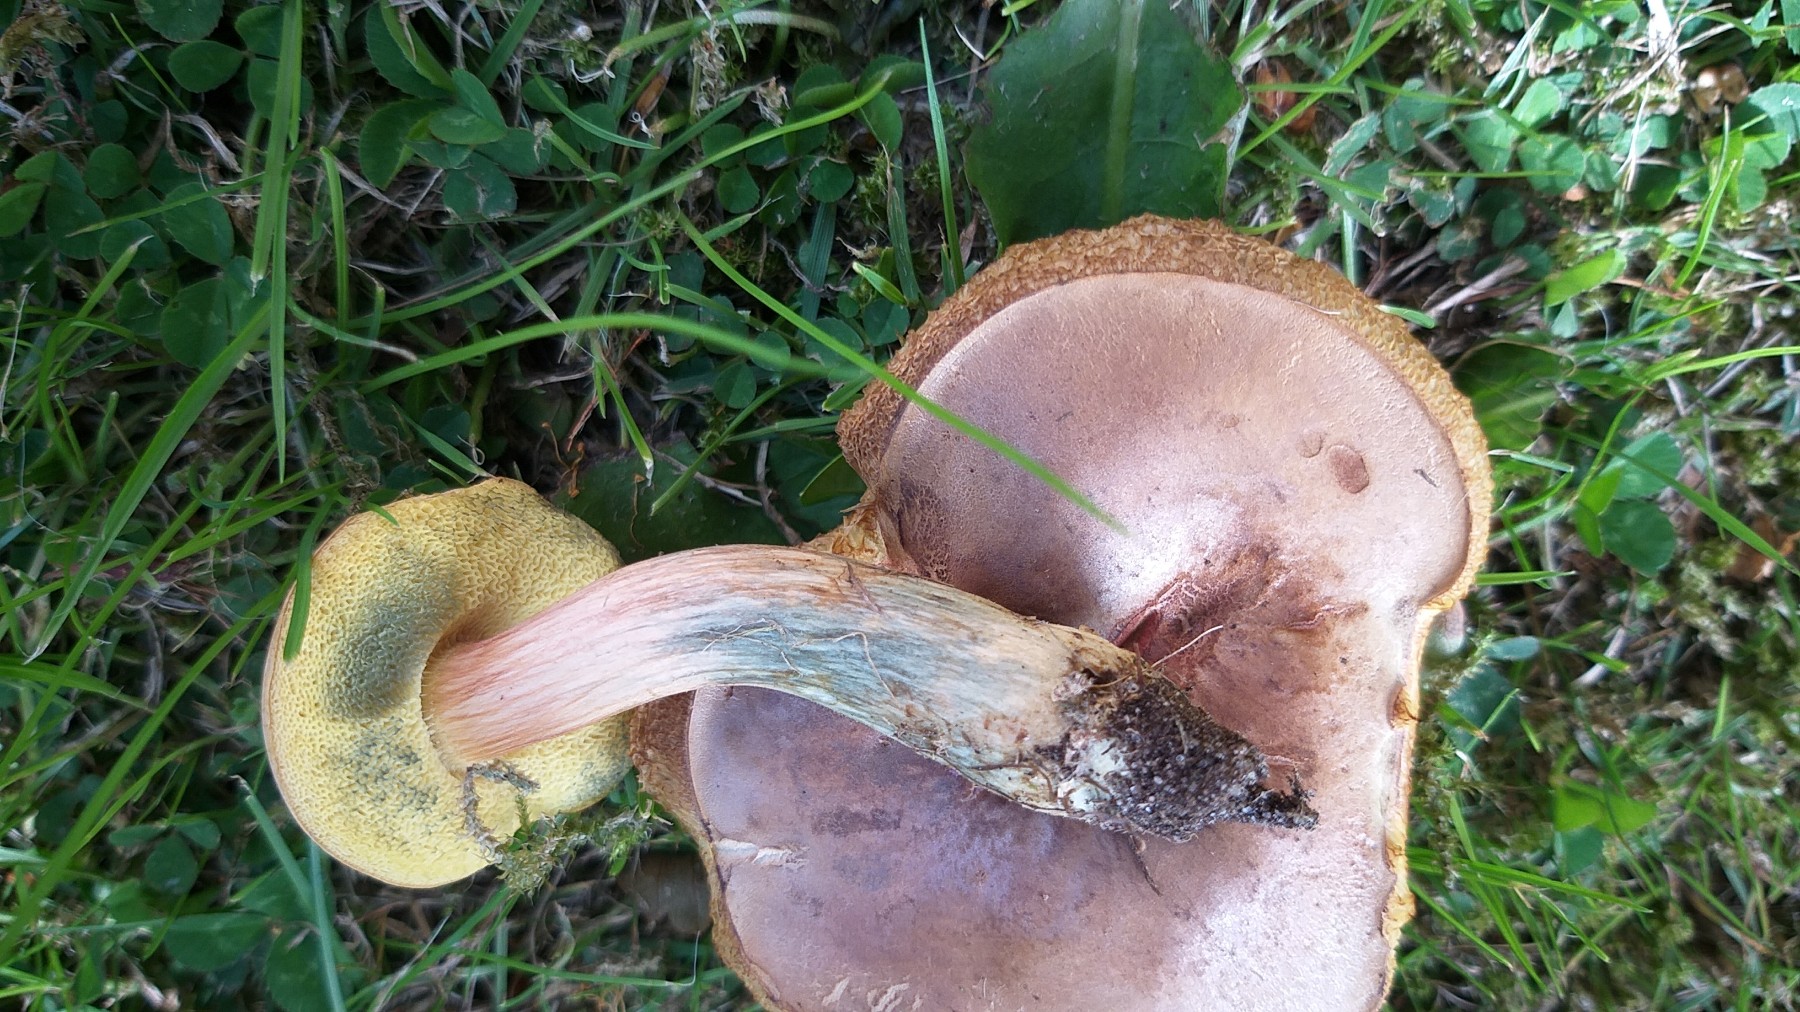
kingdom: Fungi
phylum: Basidiomycota
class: Agaricomycetes
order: Boletales
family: Boletaceae
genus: Hortiboletus
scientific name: Hortiboletus bubalinus
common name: aurora-rørhat
